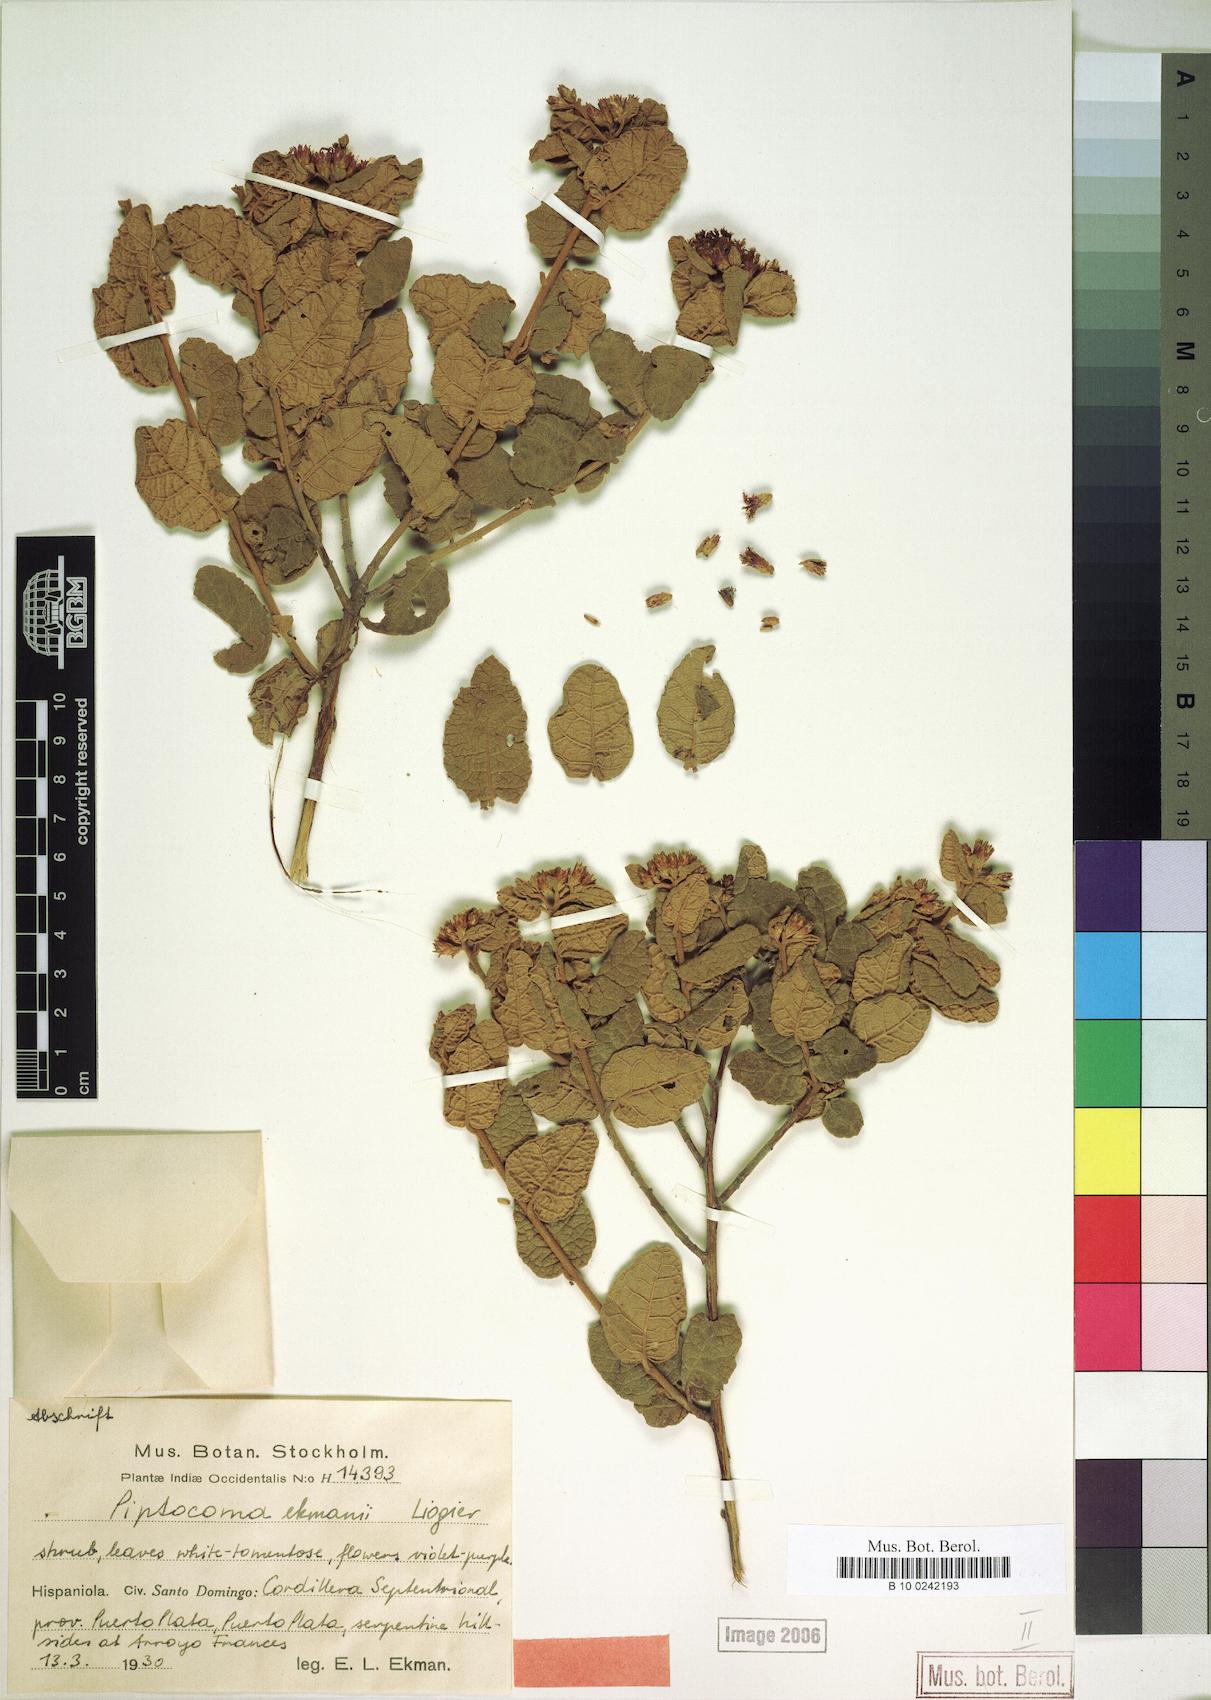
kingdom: Plantae
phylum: Tracheophyta
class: Magnoliopsida
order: Asterales
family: Asteraceae
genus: Piptocoma
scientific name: Piptocoma rufescens
